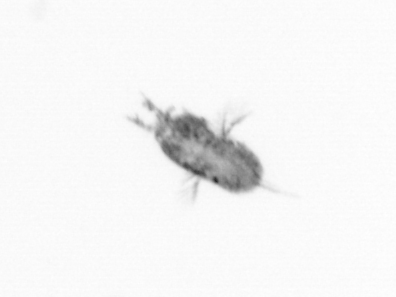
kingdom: Animalia
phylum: Arthropoda
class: Copepoda
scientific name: Copepoda
